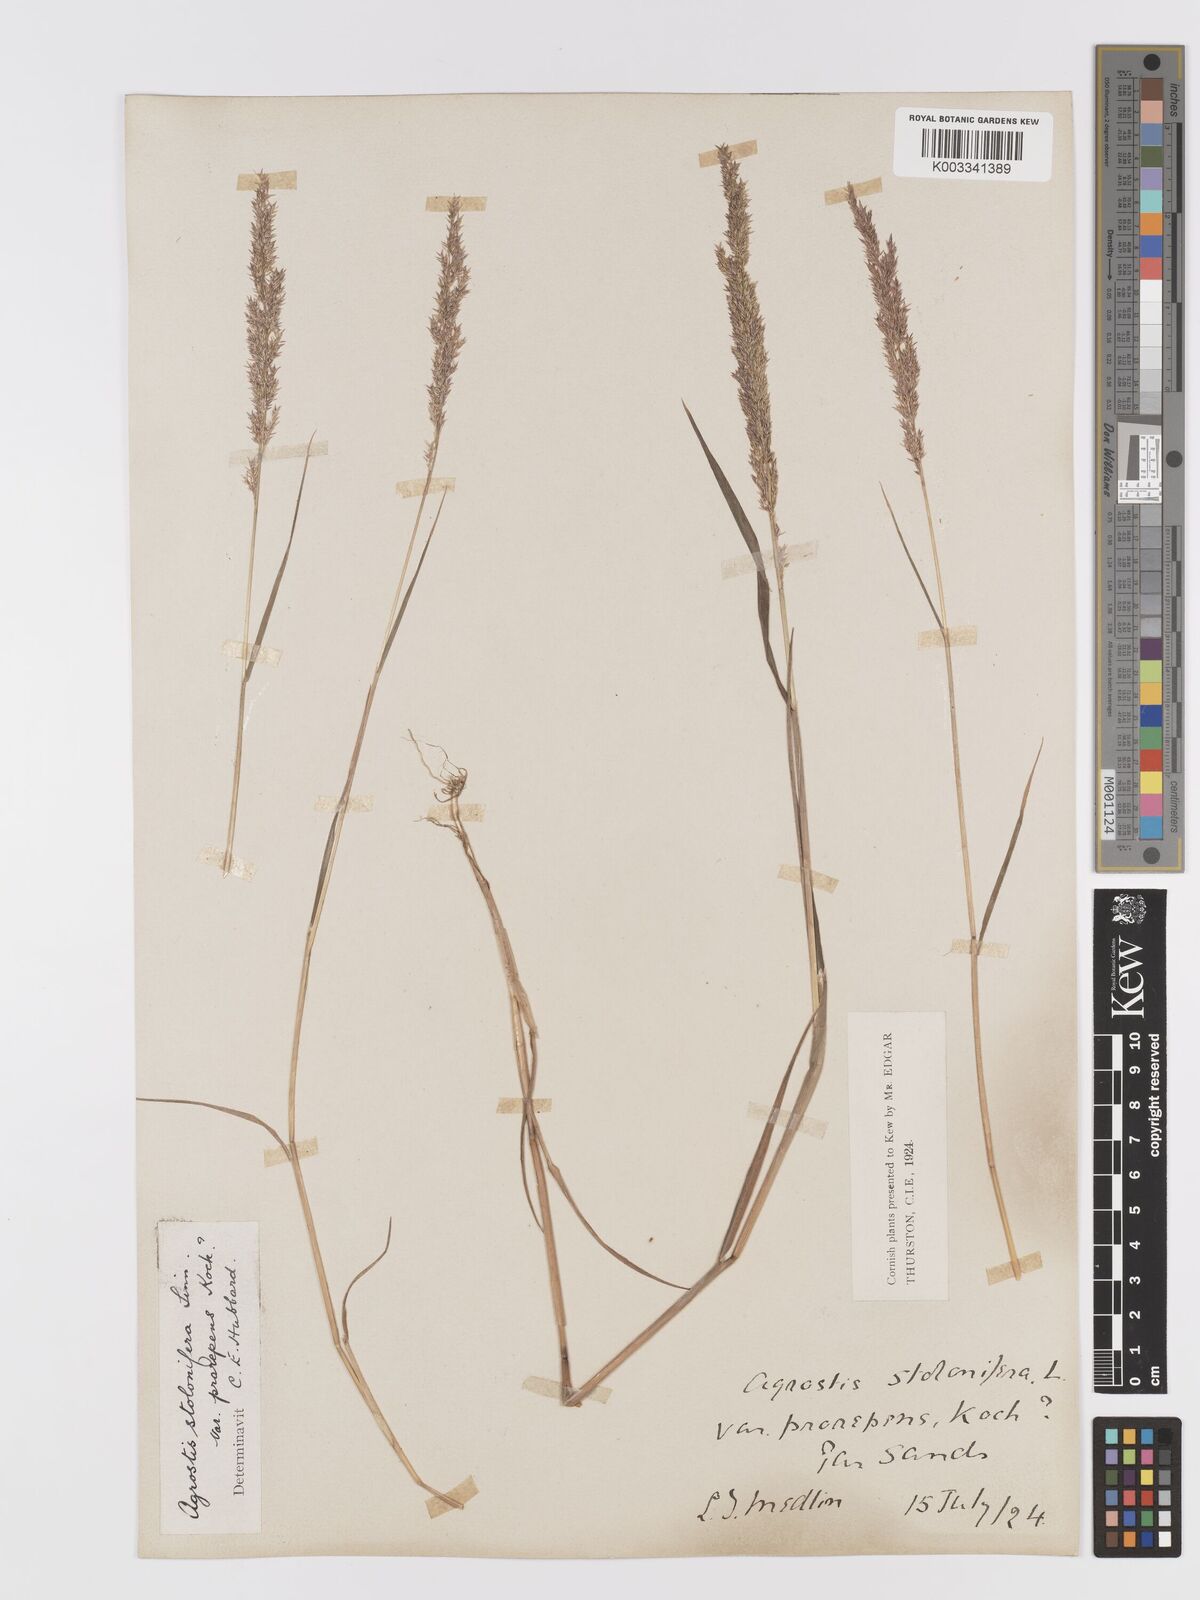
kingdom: Plantae
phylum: Tracheophyta
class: Liliopsida
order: Poales
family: Poaceae
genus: Agrostis
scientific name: Agrostis stolonifera
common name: Creeping bentgrass
